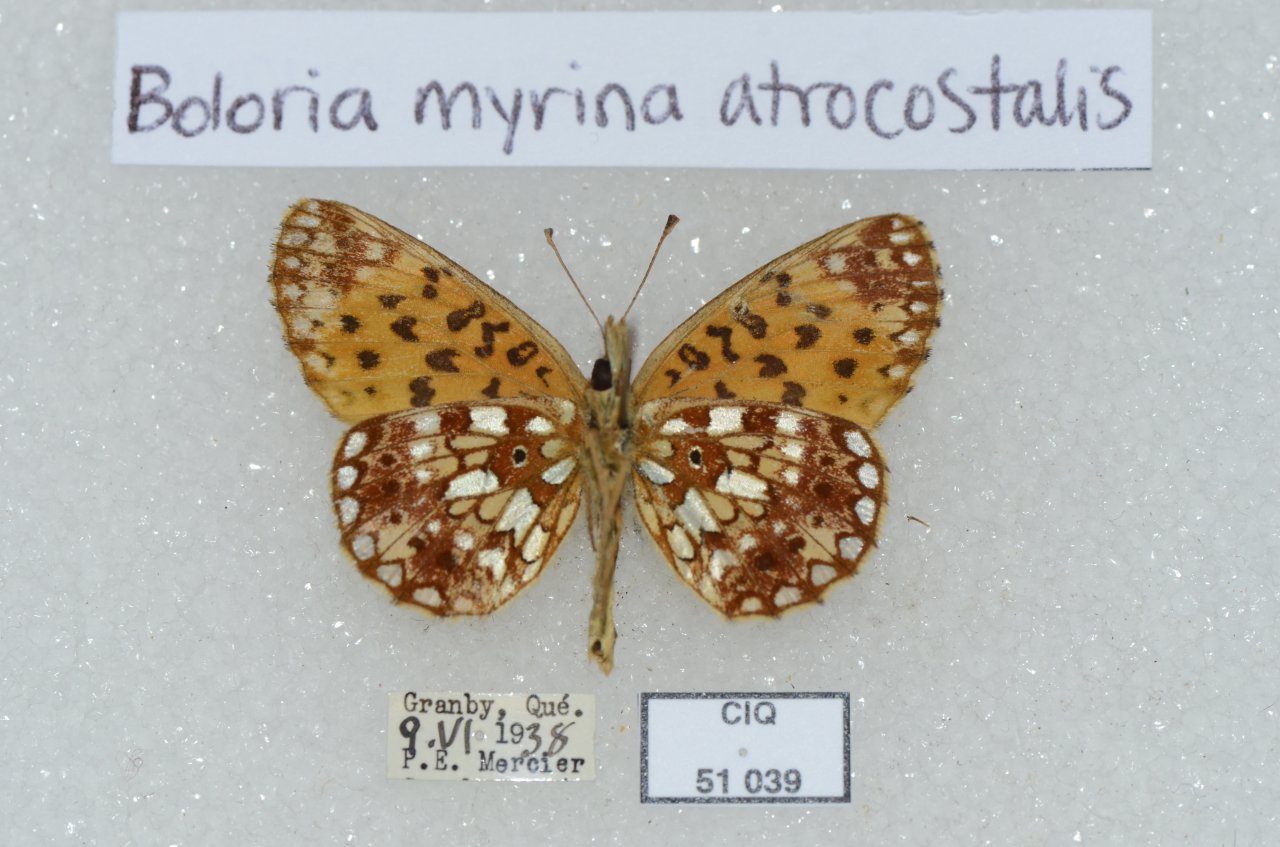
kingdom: Animalia
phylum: Arthropoda
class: Insecta
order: Lepidoptera
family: Nymphalidae
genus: Boloria
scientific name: Boloria selene
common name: Silver-bordered Fritillary
